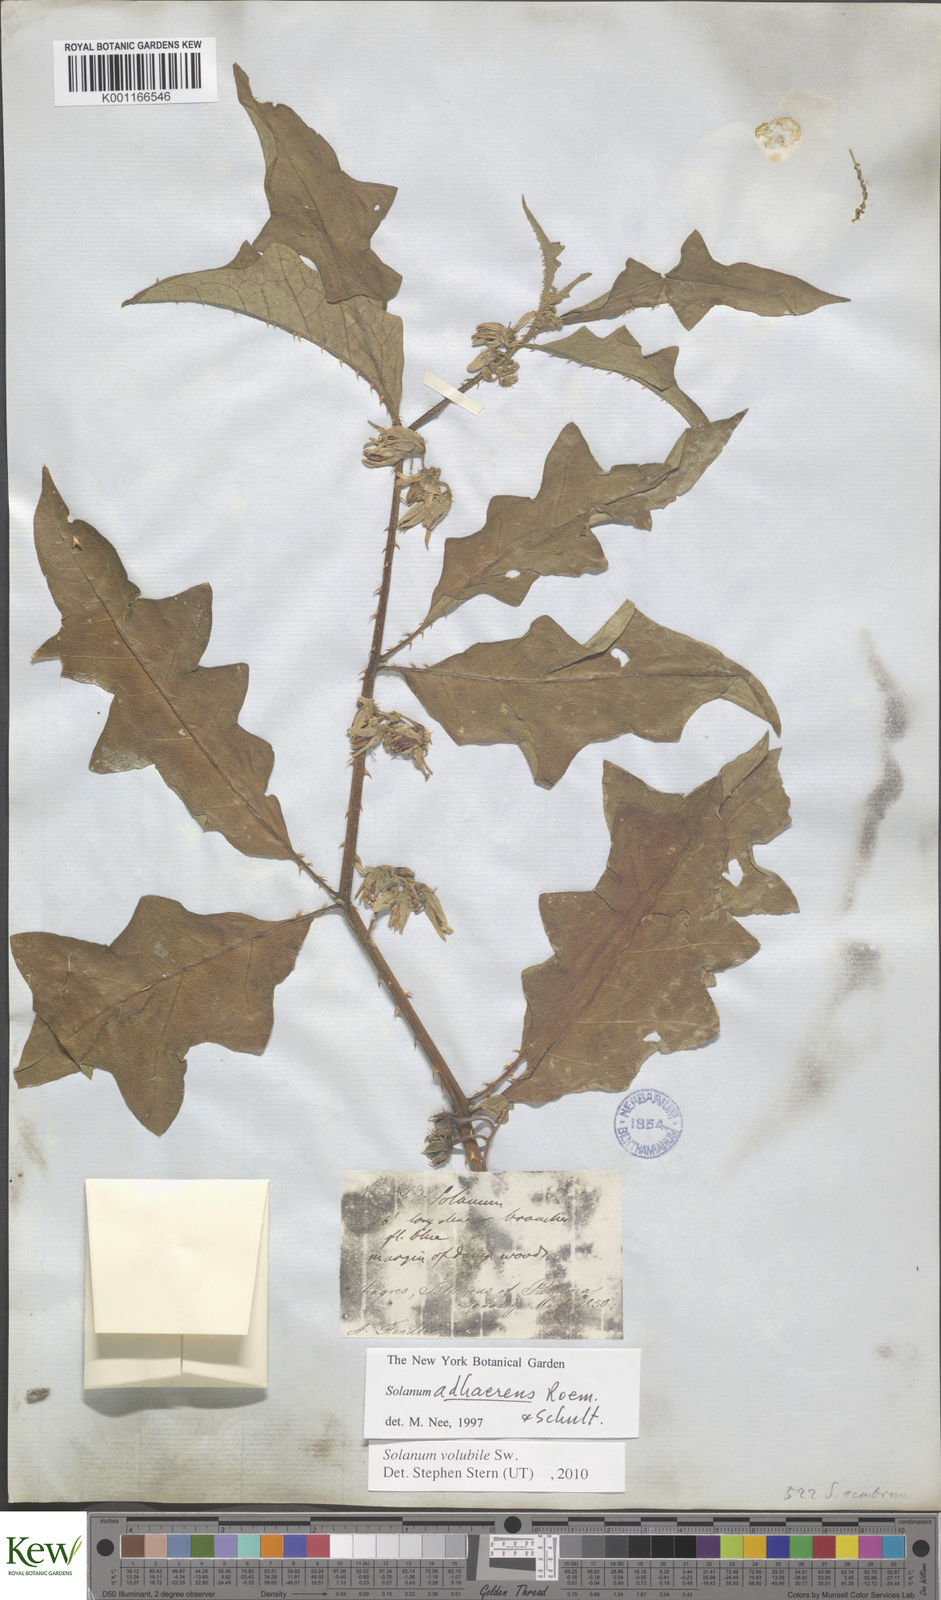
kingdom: Plantae
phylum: Tracheophyta
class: Magnoliopsida
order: Solanales
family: Solanaceae
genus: Solanum
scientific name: Solanum volubile
